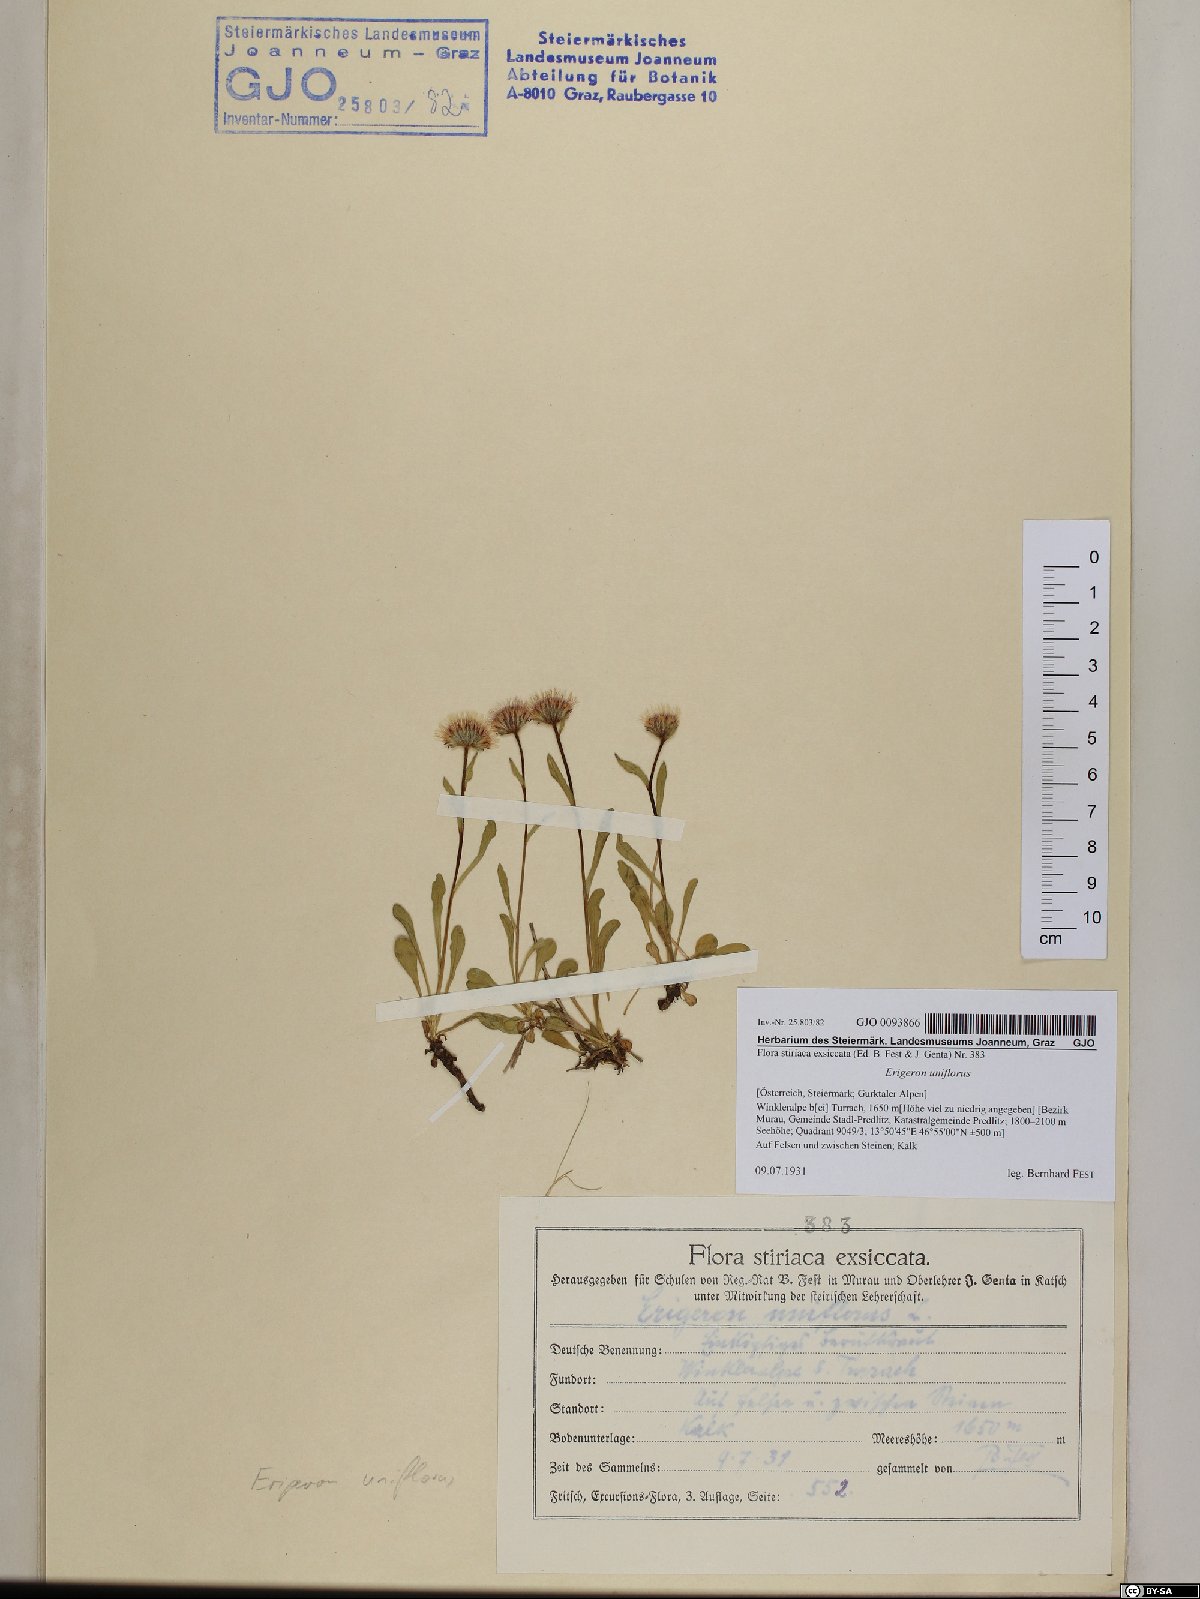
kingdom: Plantae
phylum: Tracheophyta
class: Magnoliopsida
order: Asterales
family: Asteraceae
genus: Erigeron
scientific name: Erigeron uniflorus
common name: Northern daisy
